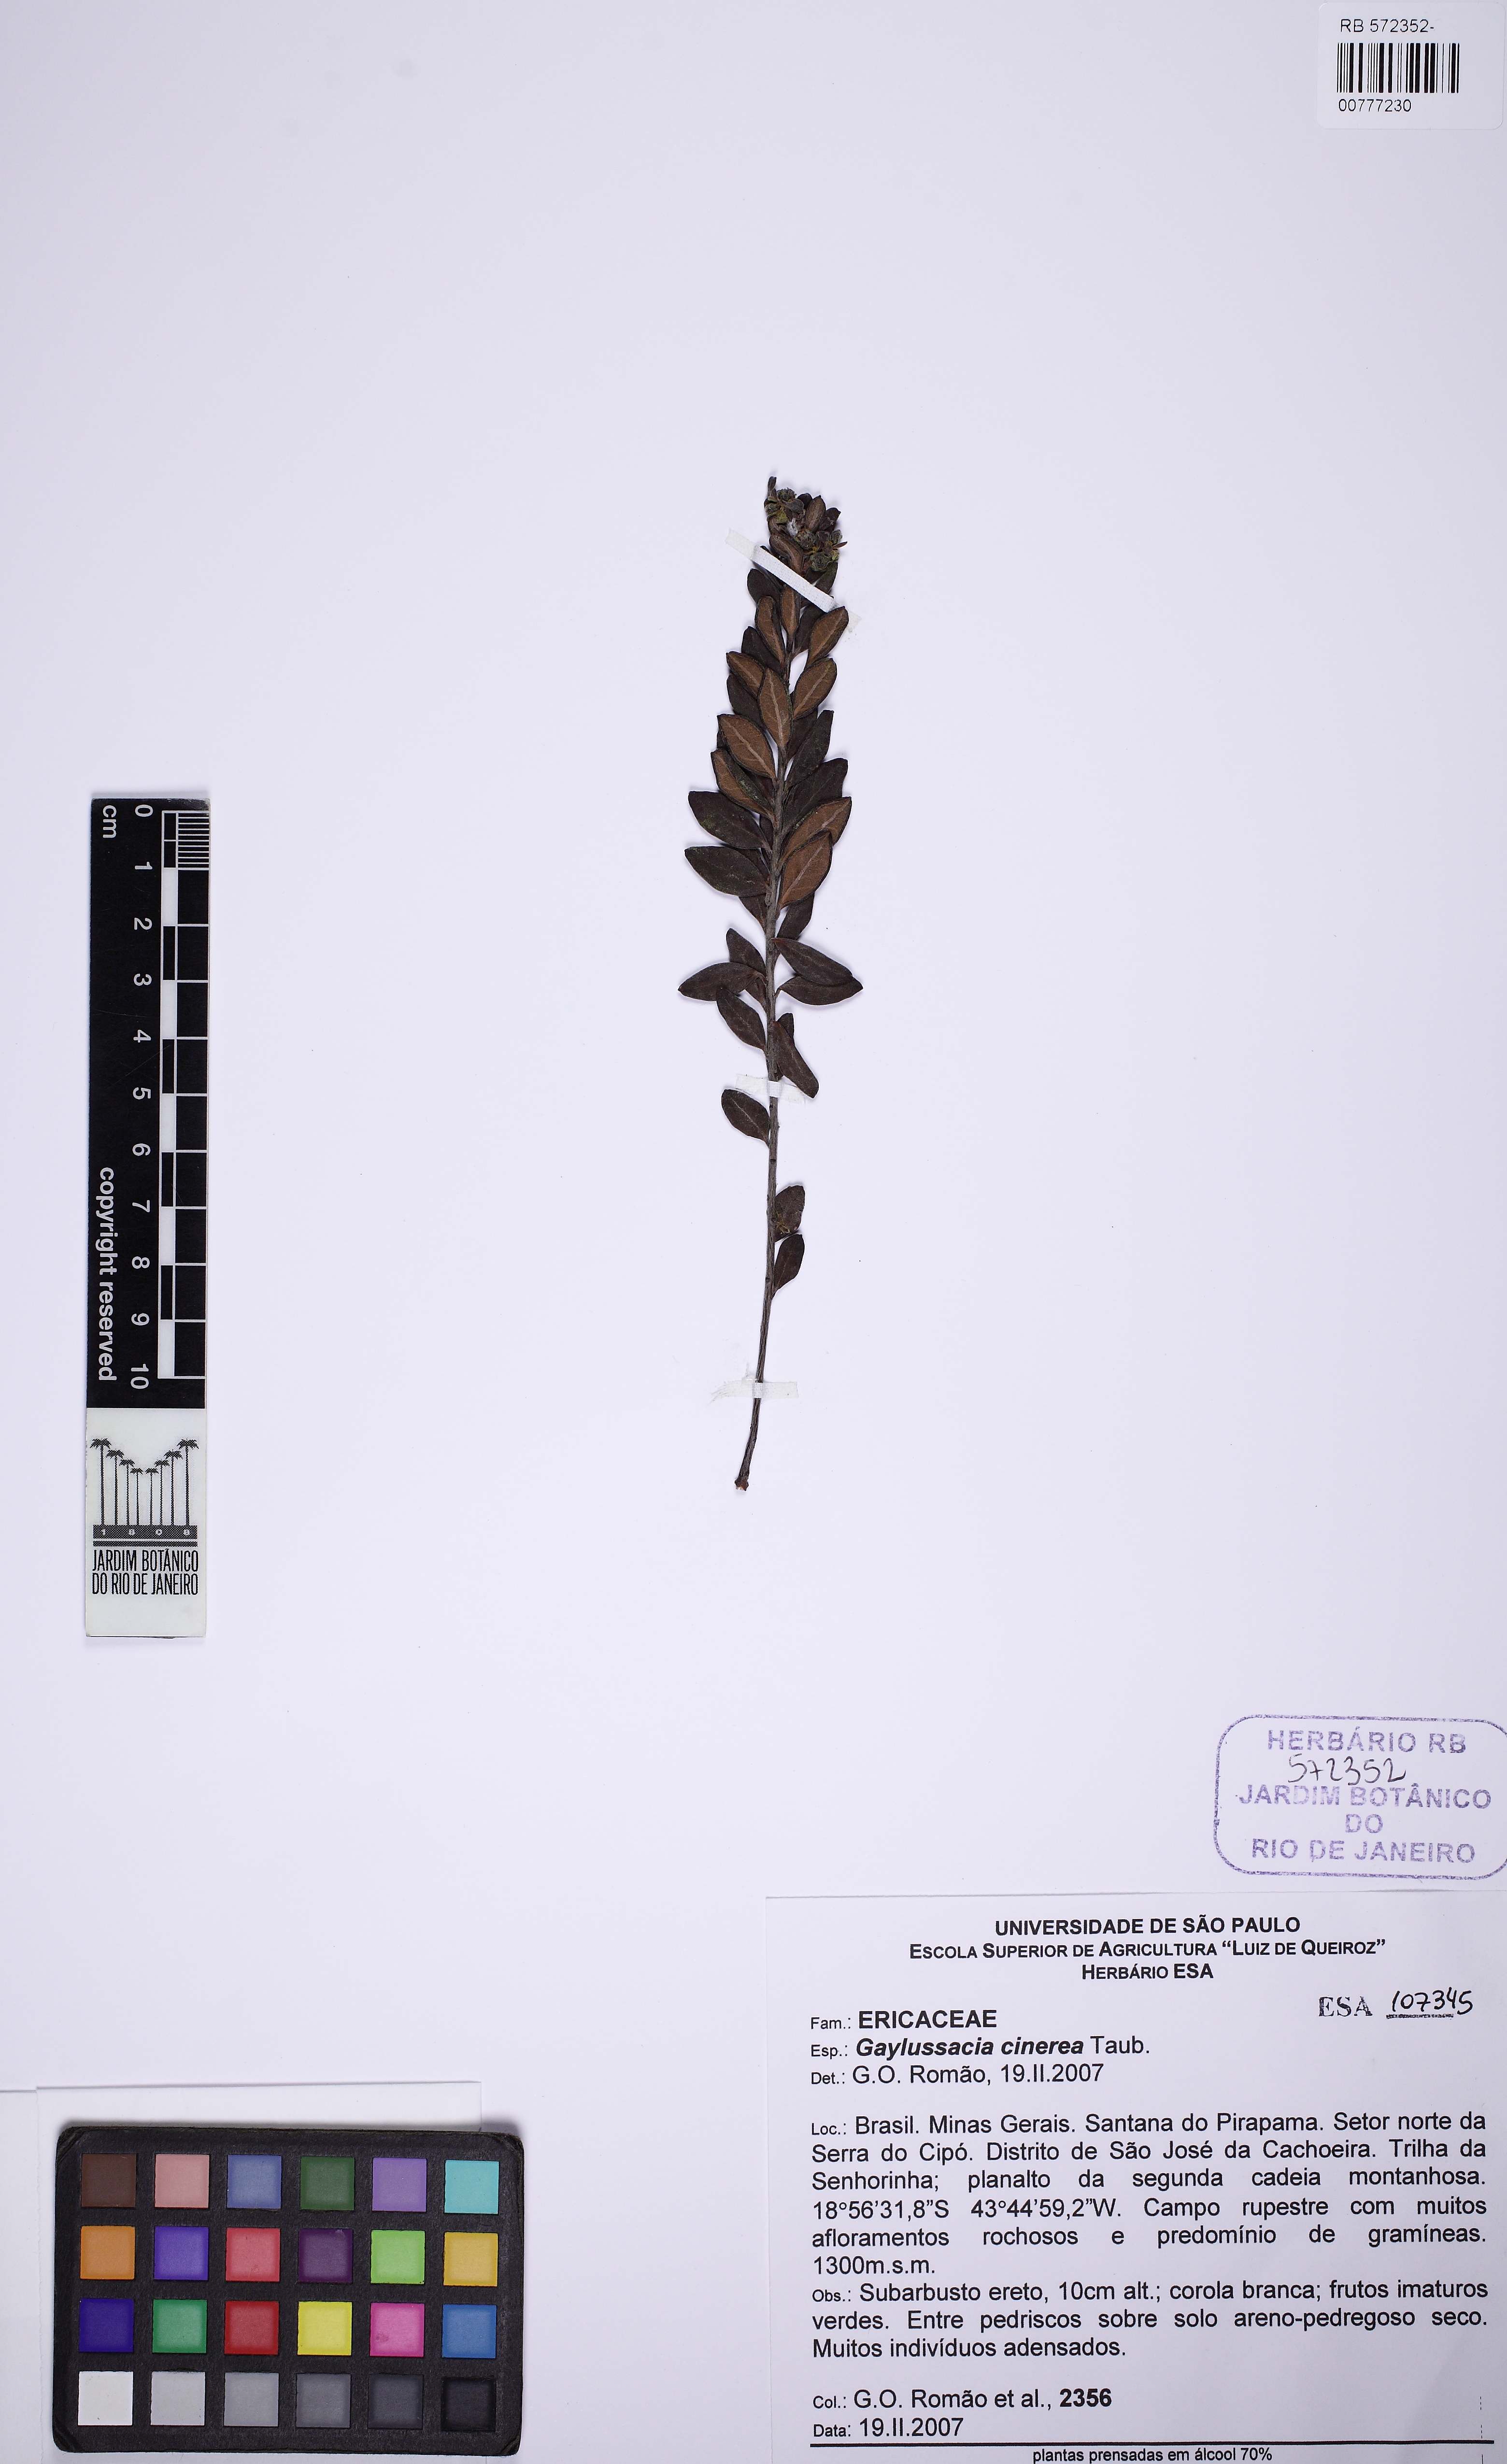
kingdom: Plantae
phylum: Tracheophyta
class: Magnoliopsida
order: Ericales
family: Ericaceae
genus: Gaylussacia
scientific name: Gaylussacia cinerea
